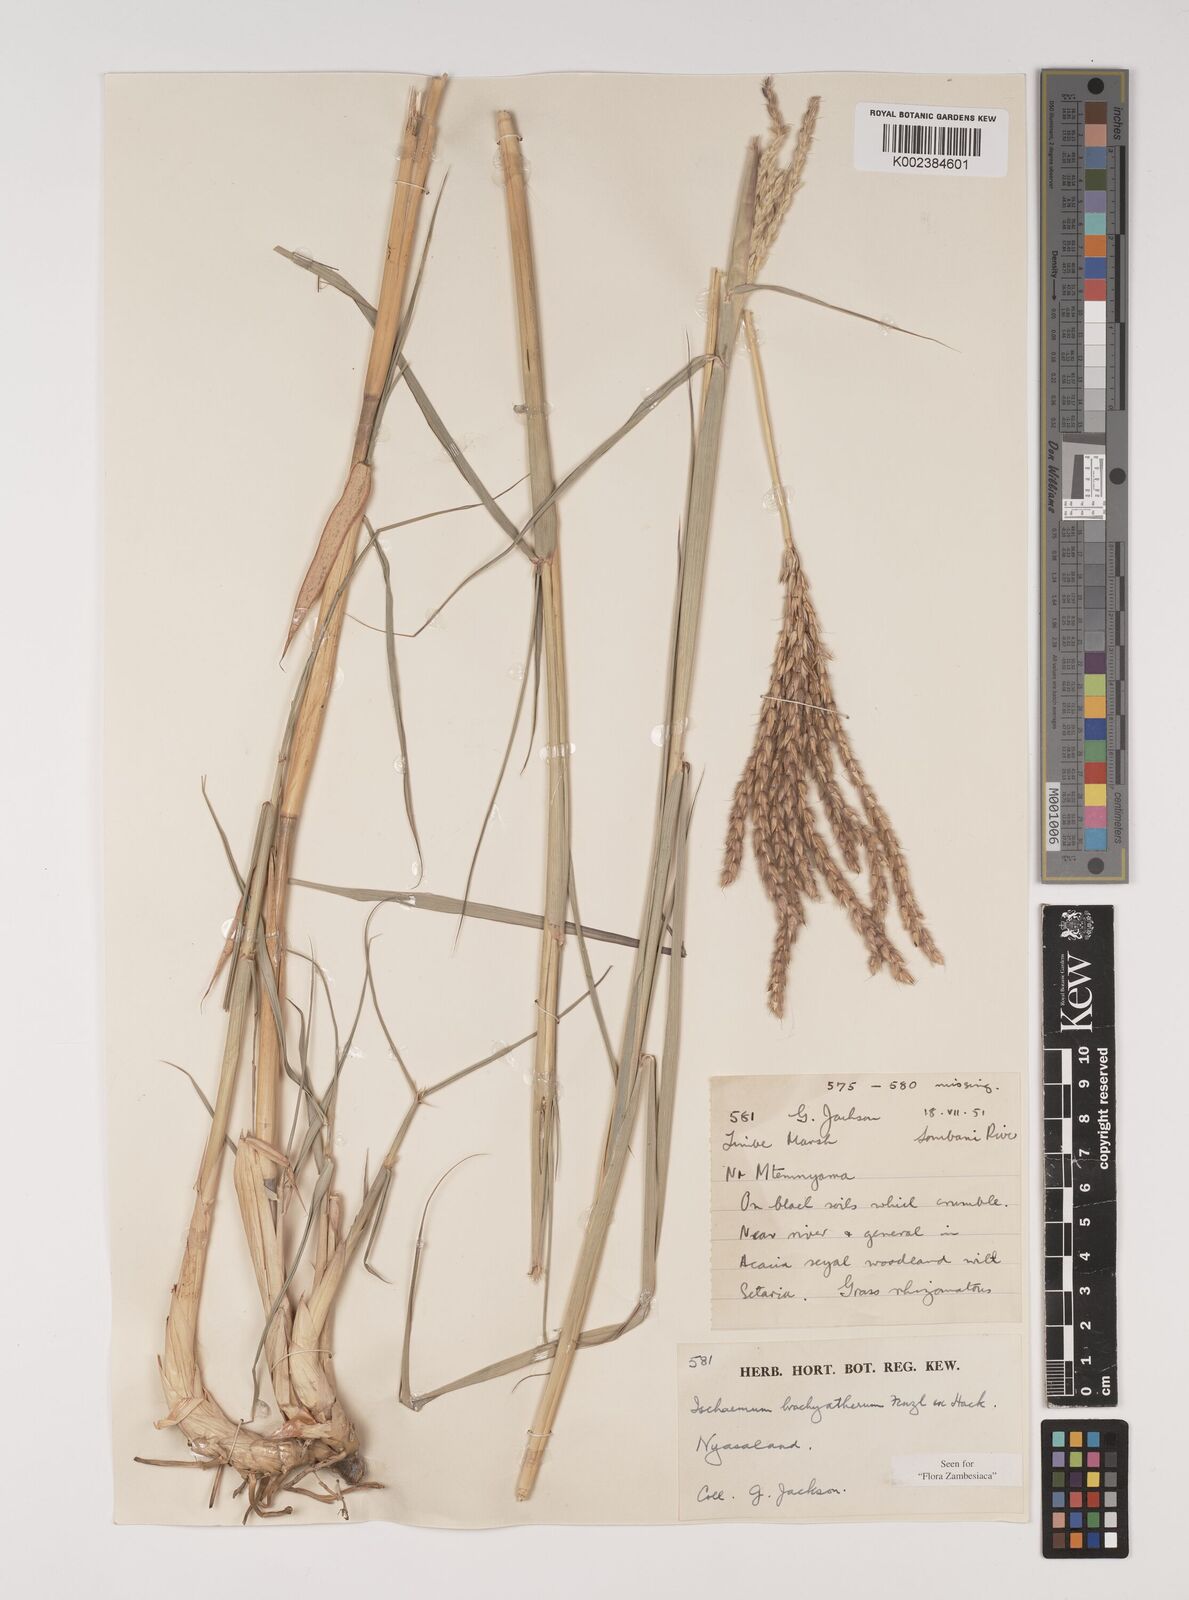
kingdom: Plantae
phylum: Tracheophyta
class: Liliopsida
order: Poales
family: Poaceae
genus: Ischaemum
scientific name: Ischaemum afrum
